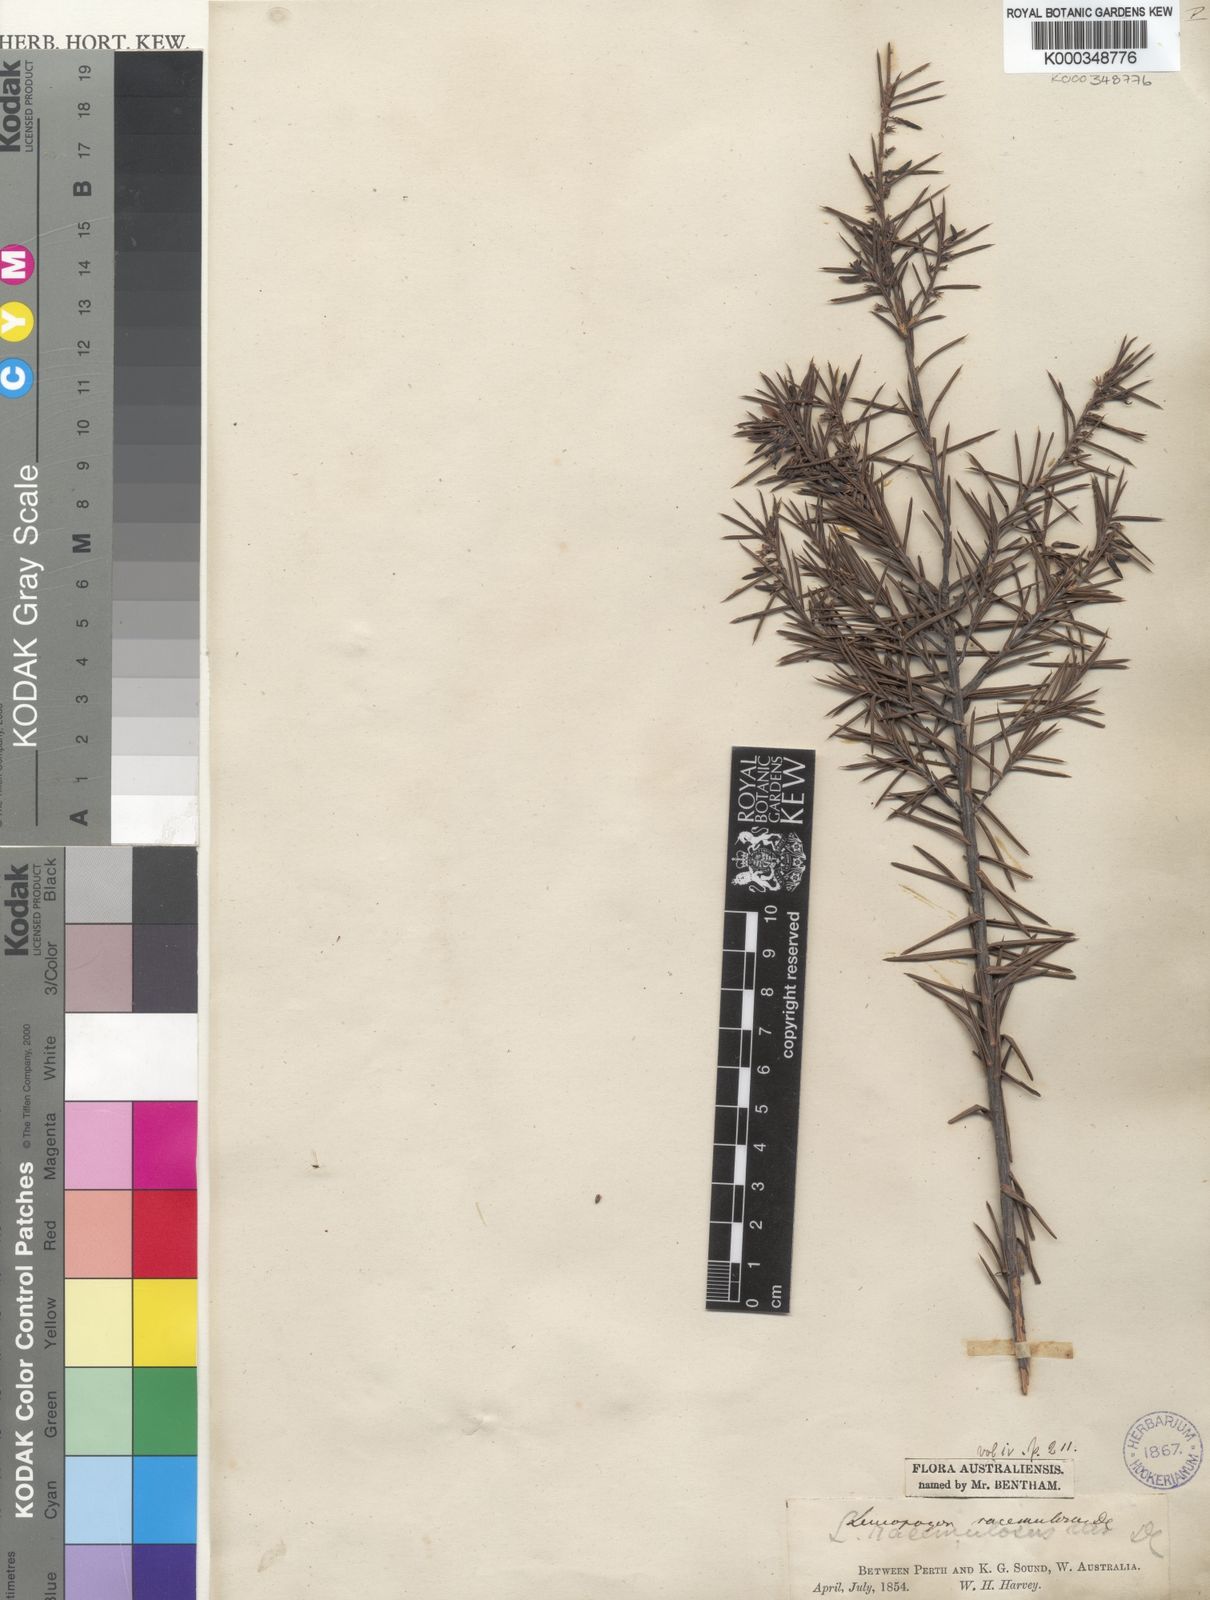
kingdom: Plantae
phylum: Tracheophyta
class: Magnoliopsida
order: Ericales
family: Ericaceae
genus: Styphelia
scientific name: Styphelia racemulosa
